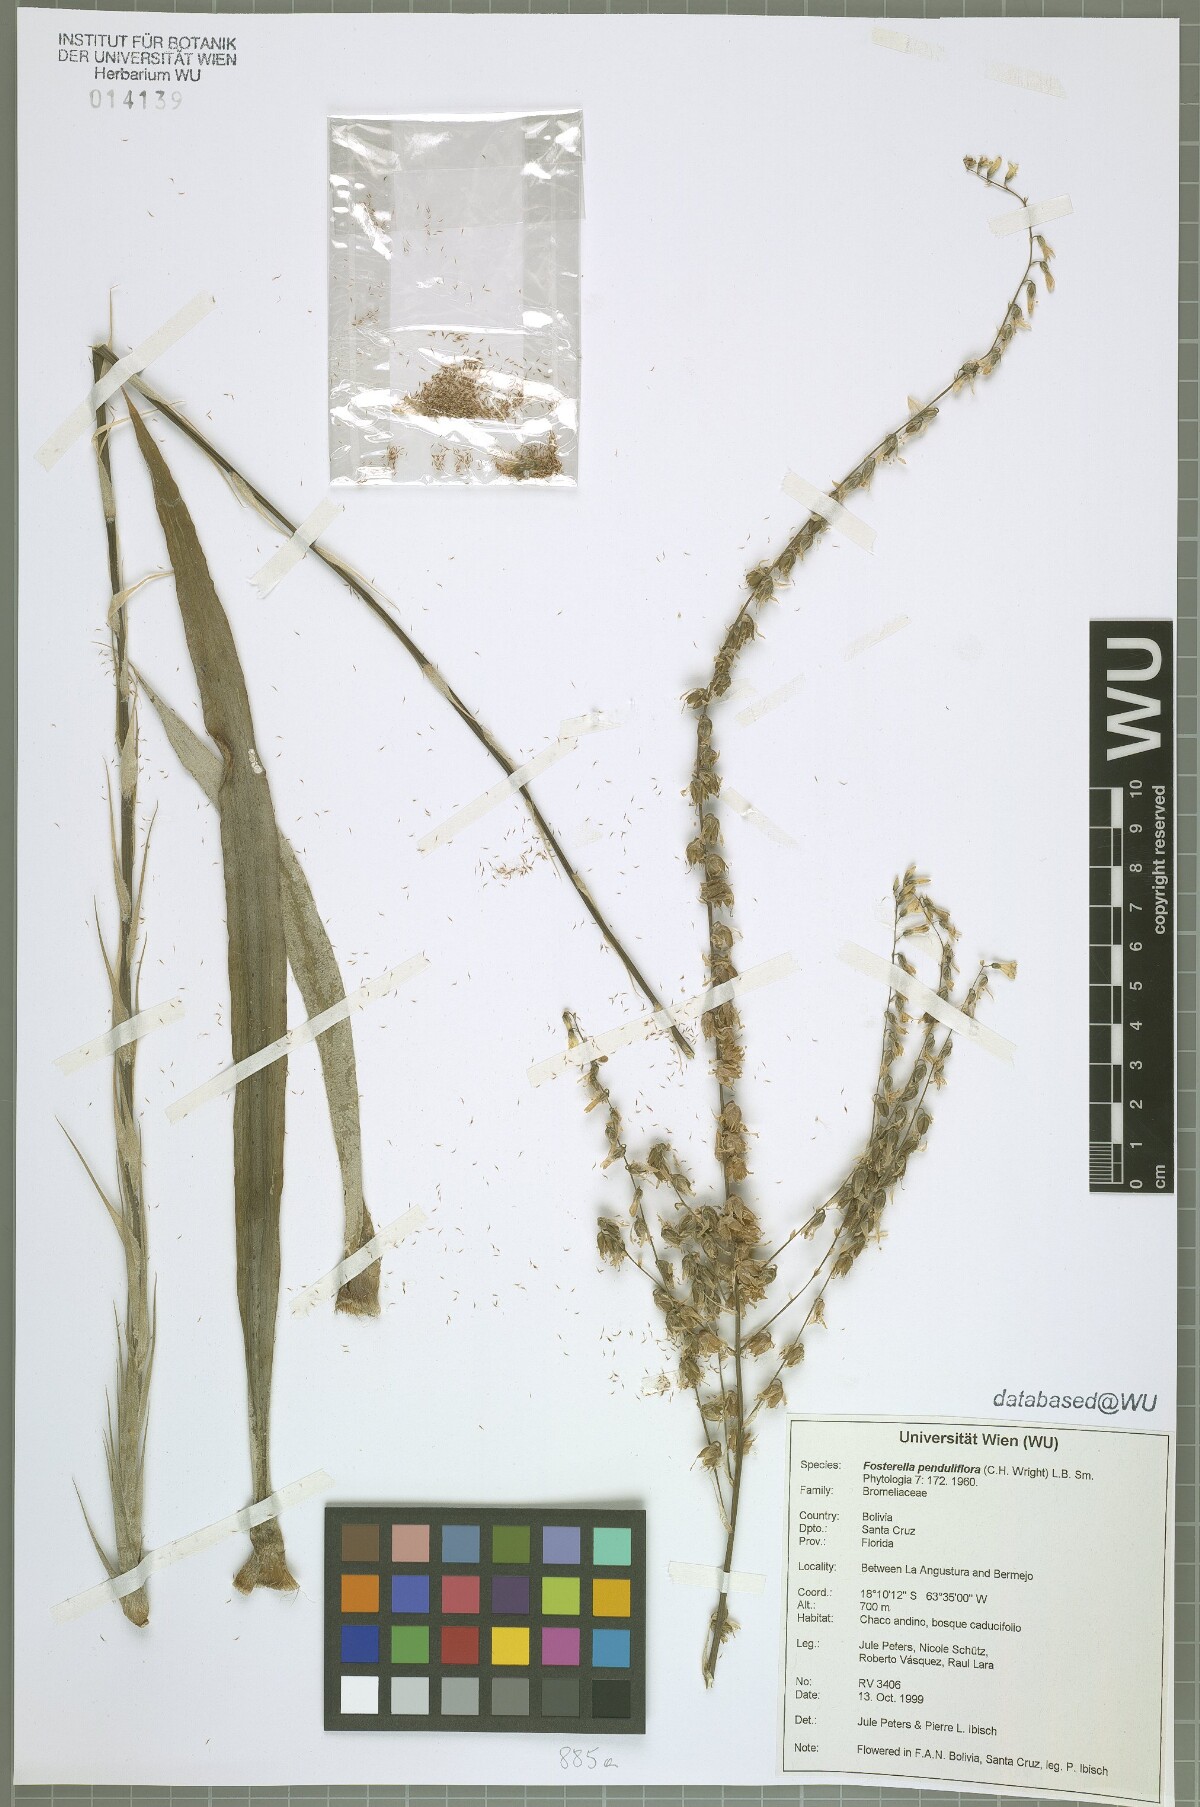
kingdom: Plantae
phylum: Tracheophyta
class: Liliopsida
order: Poales
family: Bromeliaceae
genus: Fosterella
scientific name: Fosterella penduliflora
